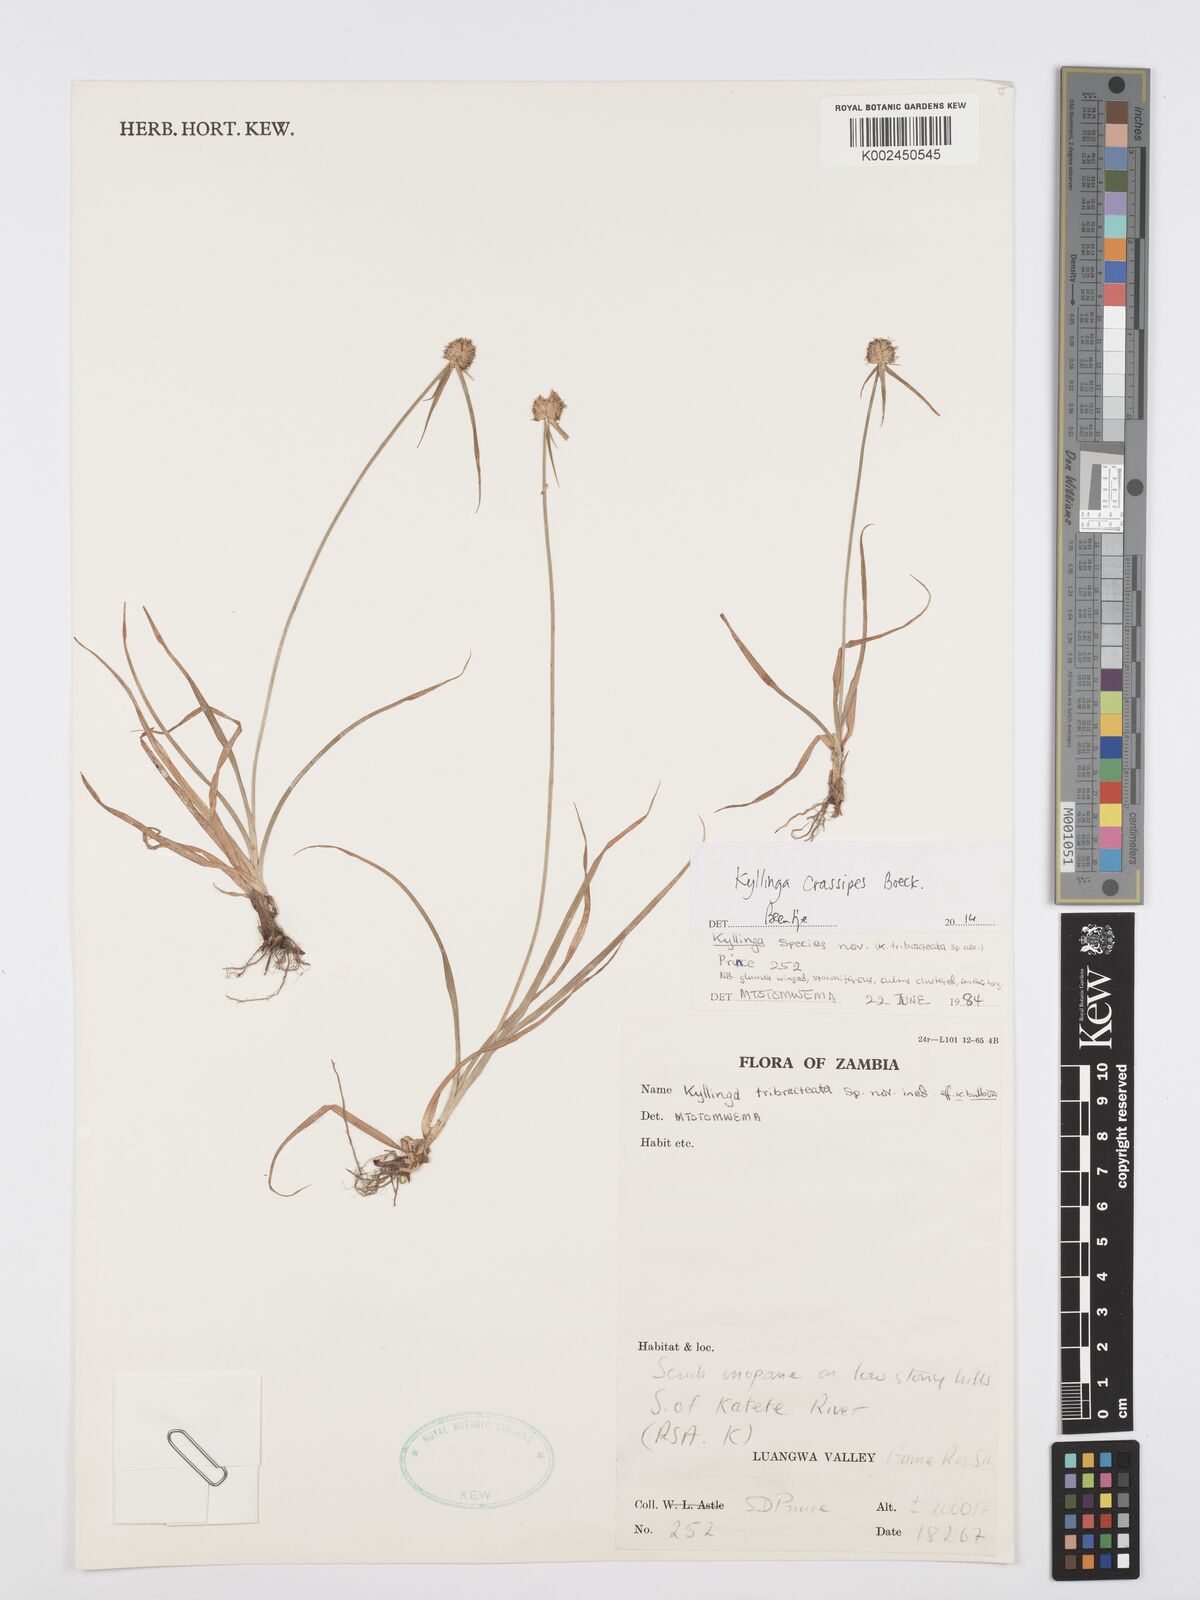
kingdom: Plantae
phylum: Tracheophyta
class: Liliopsida
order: Poales
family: Cyperaceae
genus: Cyperus
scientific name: Cyperus crassipes
